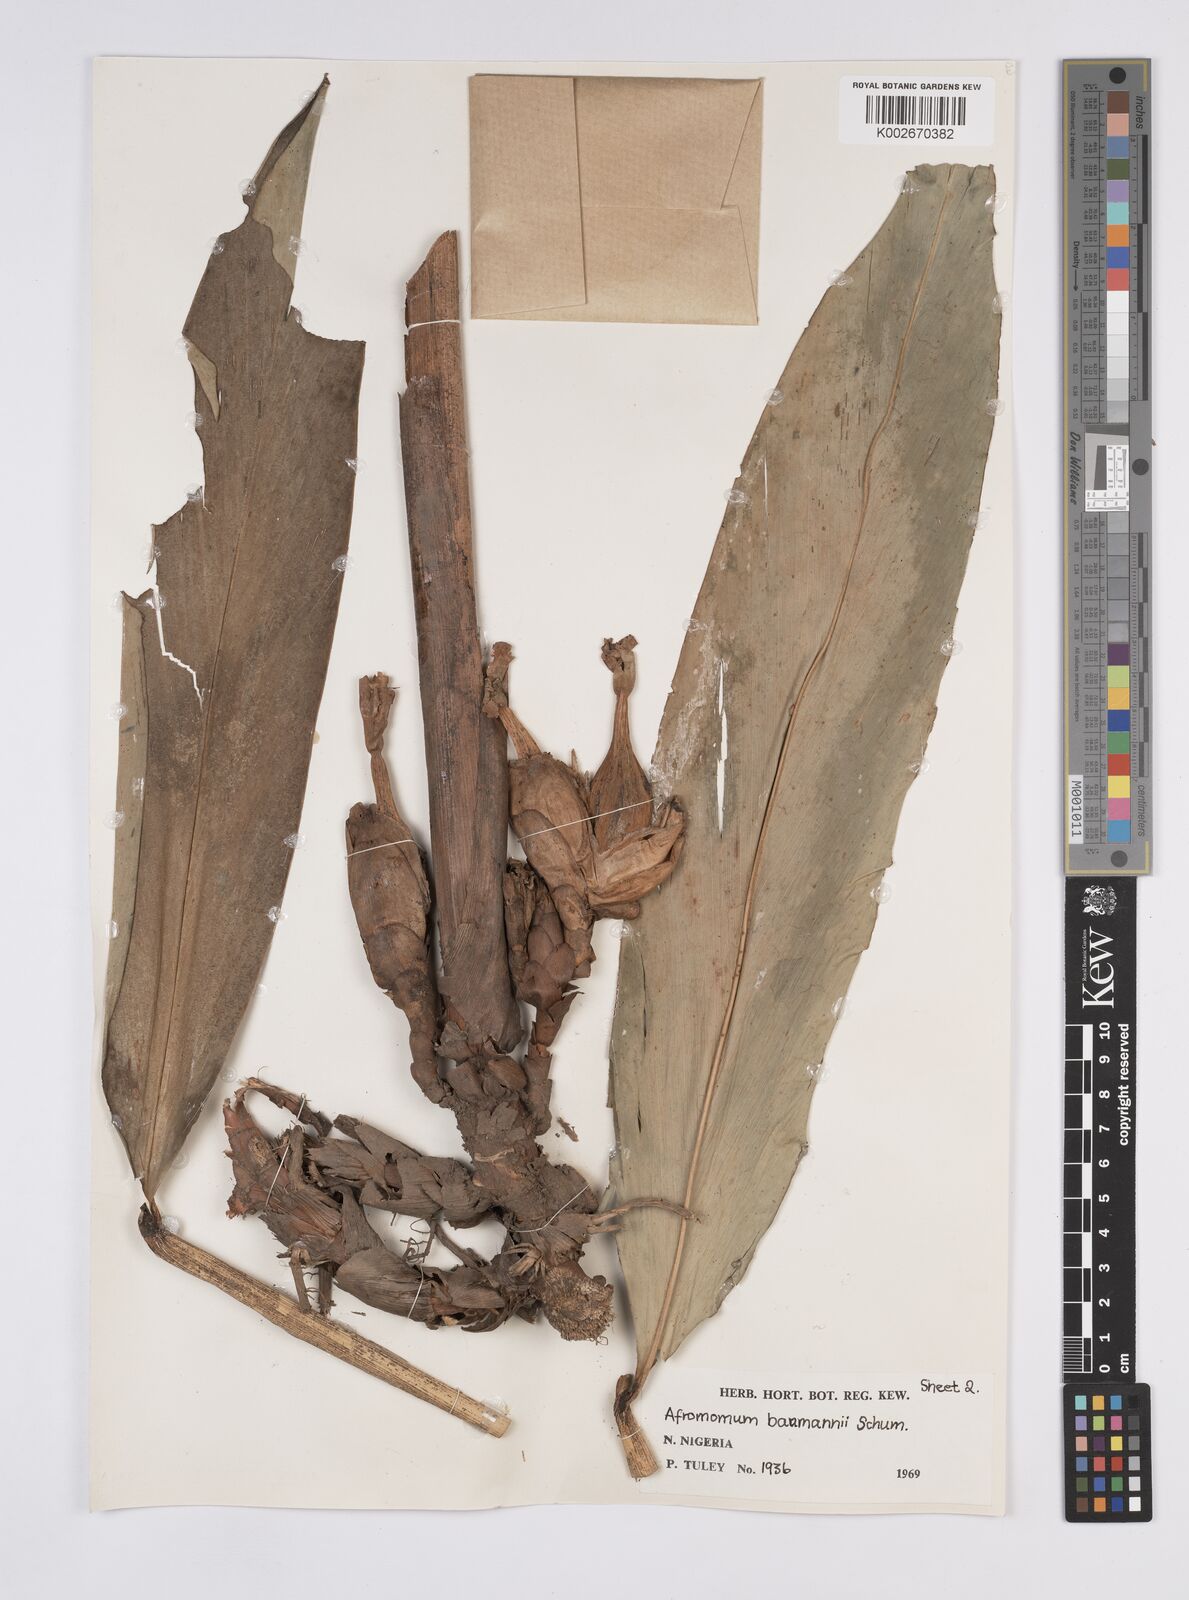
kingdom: Plantae
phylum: Tracheophyta
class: Liliopsida
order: Zingiberales
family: Zingiberaceae
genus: Aframomum
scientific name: Aframomum angustifolium
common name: Guinea grains
